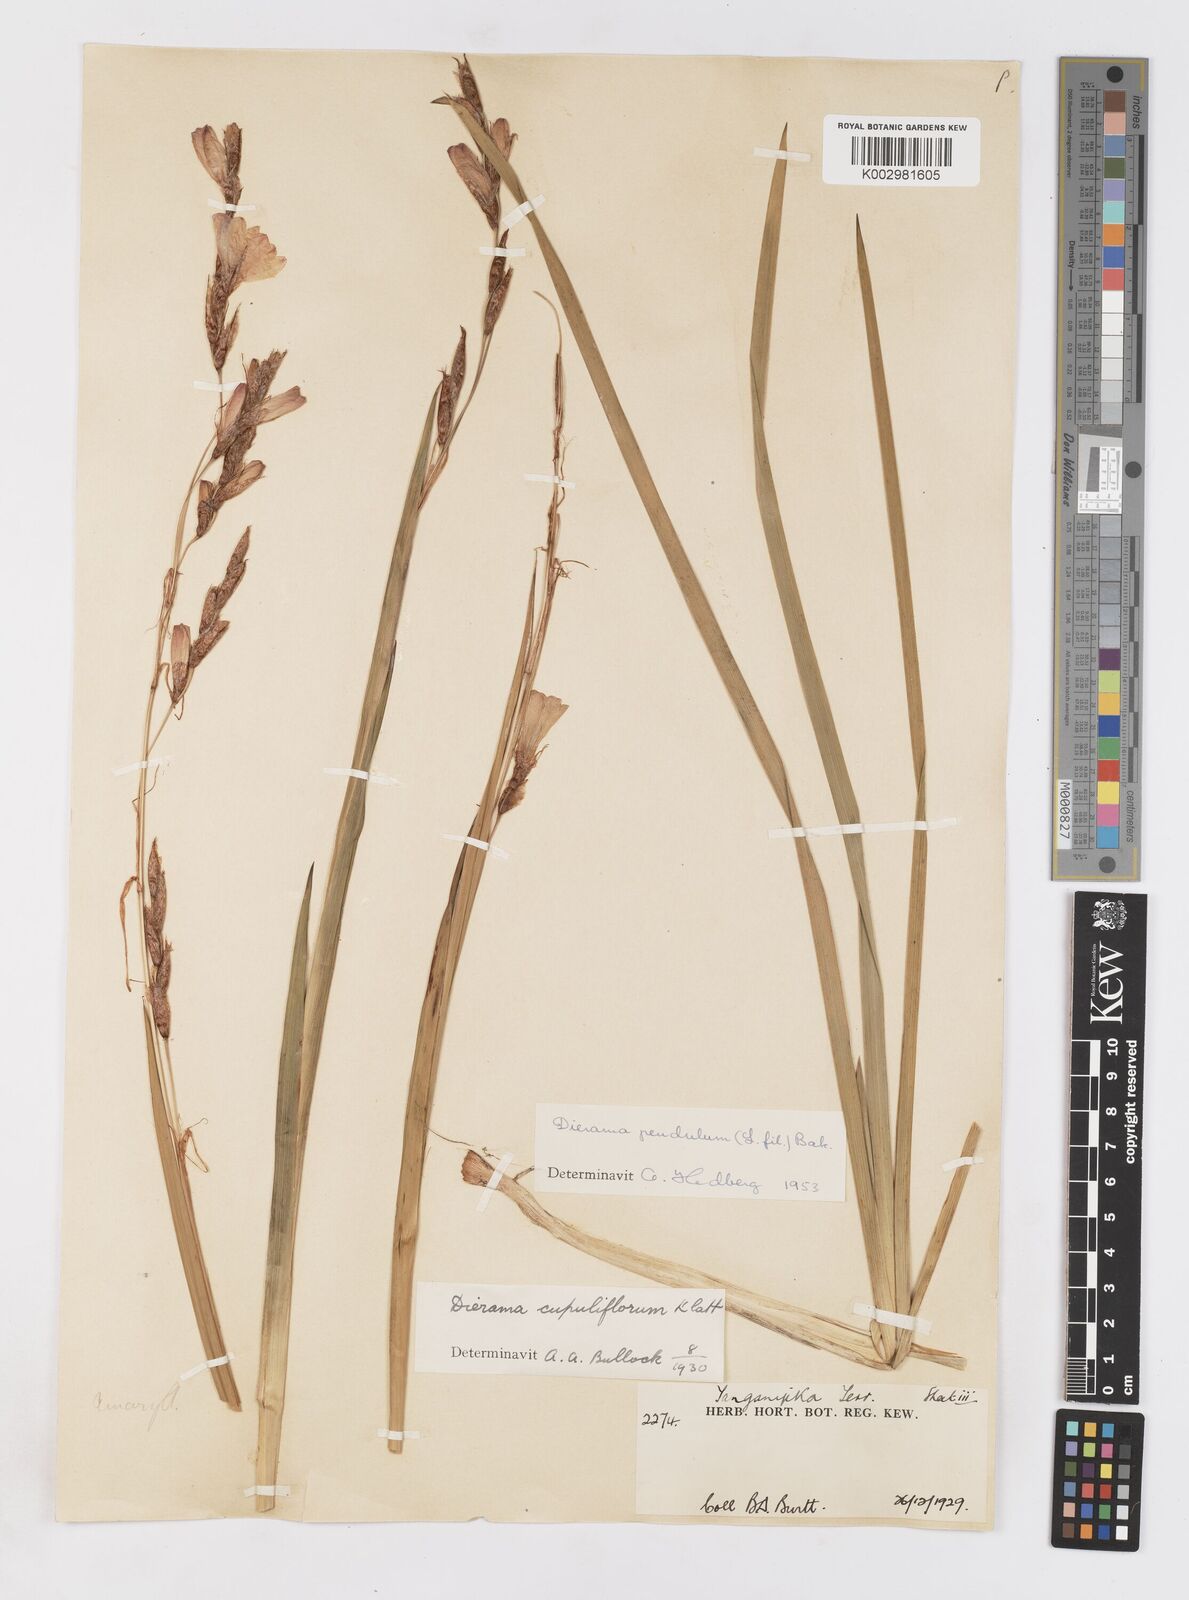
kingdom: Plantae
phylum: Tracheophyta
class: Liliopsida
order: Asparagales
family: Iridaceae
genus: Dierama
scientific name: Dierama cupuliflorum
